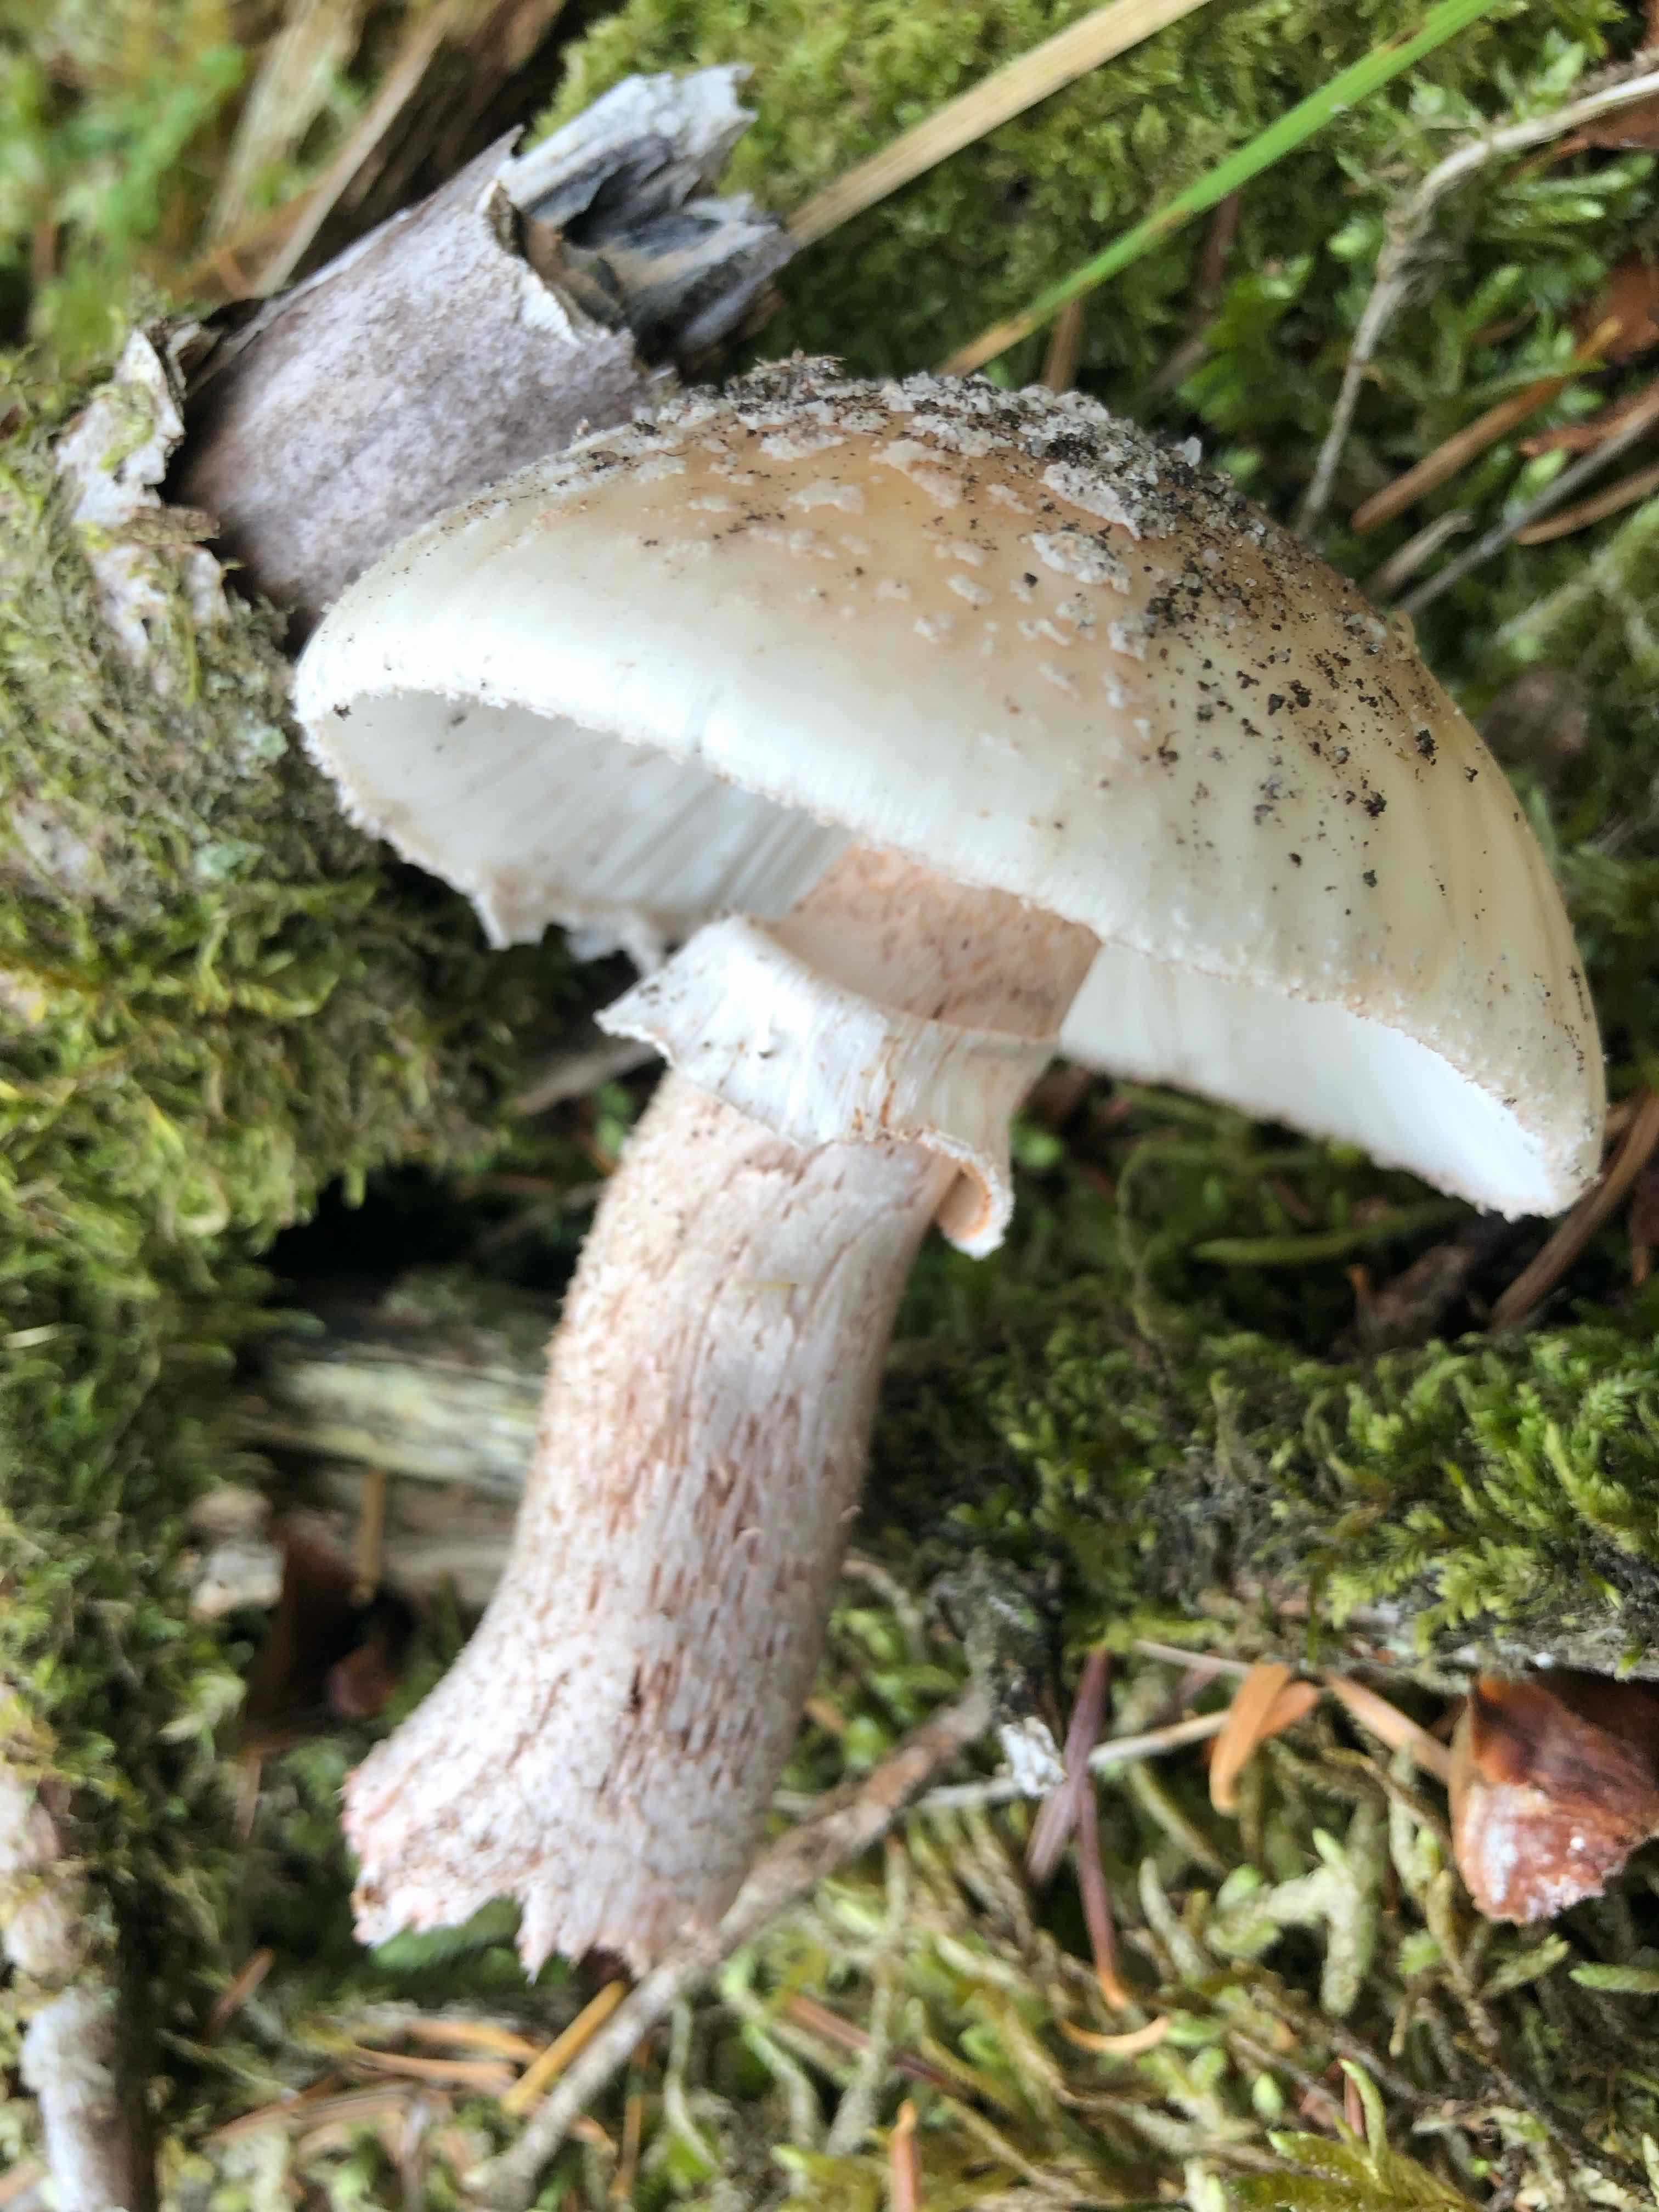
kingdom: Fungi
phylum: Basidiomycota
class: Agaricomycetes
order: Agaricales
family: Amanitaceae
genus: Amanita
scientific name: Amanita rubescens
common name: rødmende fluesvamp
